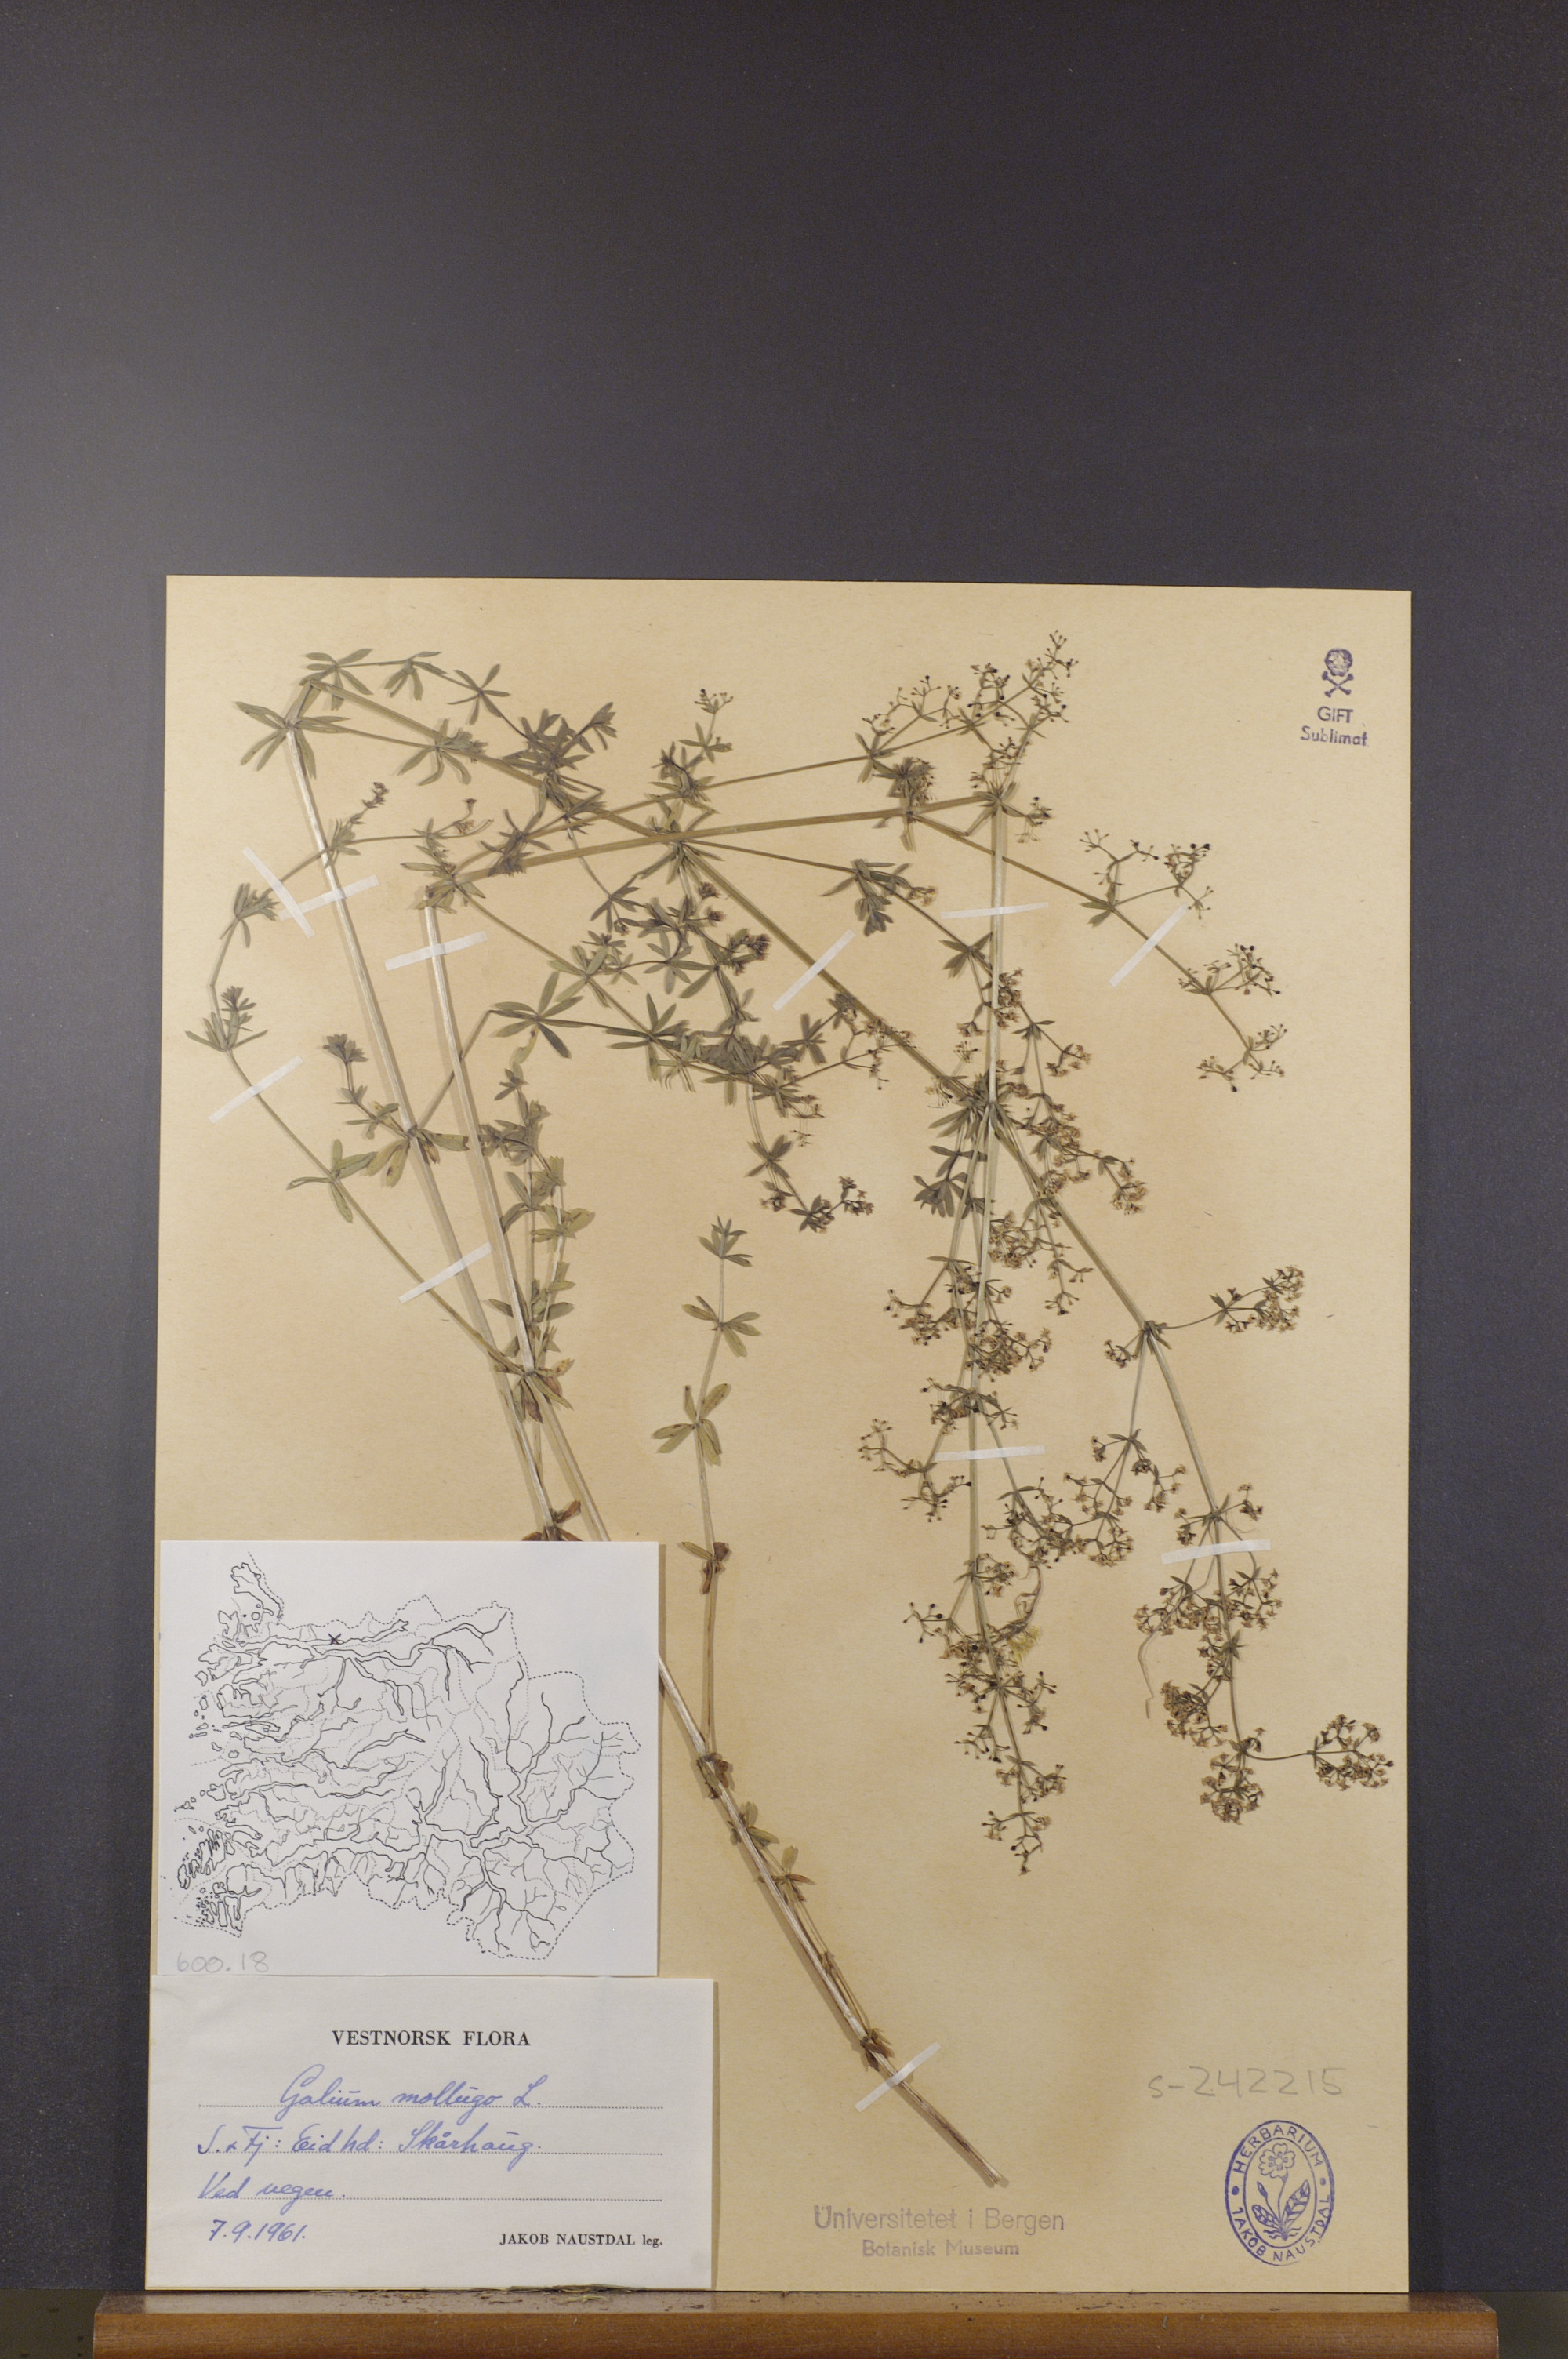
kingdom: Plantae
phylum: Tracheophyta
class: Magnoliopsida
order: Gentianales
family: Rubiaceae
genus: Galium
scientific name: Galium mollugo
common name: Hedge bedstraw
